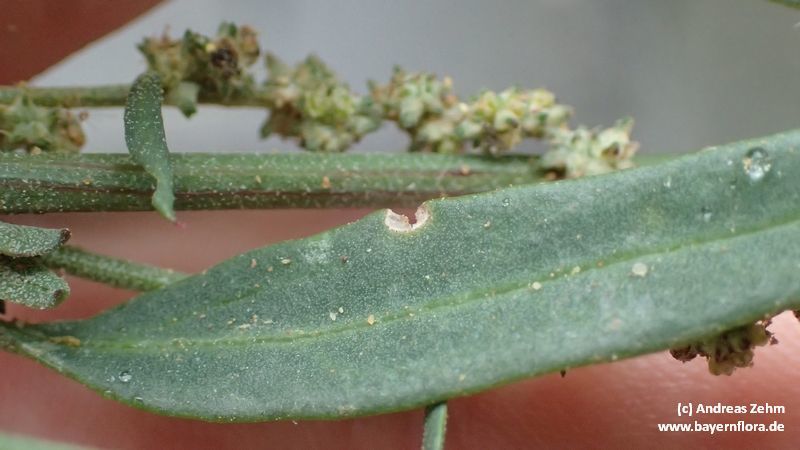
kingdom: Plantae
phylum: Tracheophyta
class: Magnoliopsida
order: Caryophyllales
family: Amaranthaceae
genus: Atriplex
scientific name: Atriplex patula
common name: Common orache
